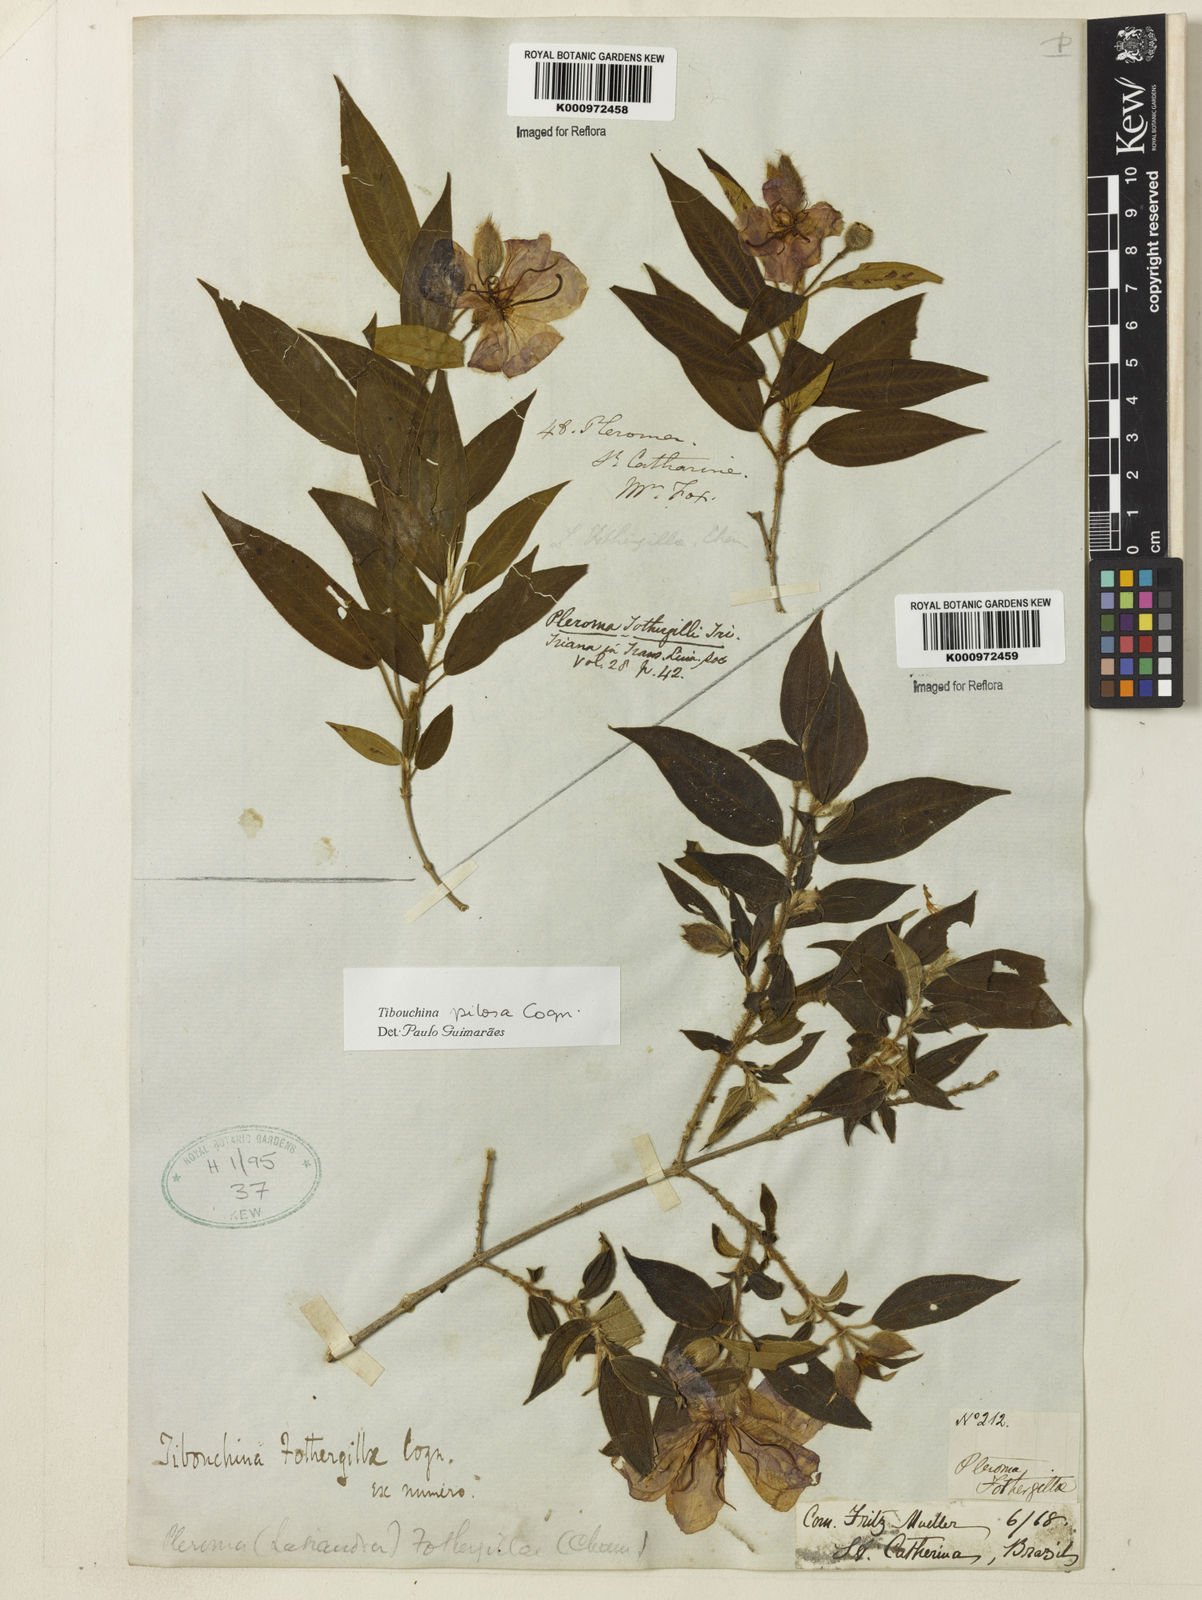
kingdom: Plantae
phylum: Tracheophyta
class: Magnoliopsida
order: Myrtales
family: Melastomataceae
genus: Pleroma
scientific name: Pleroma pilosum
